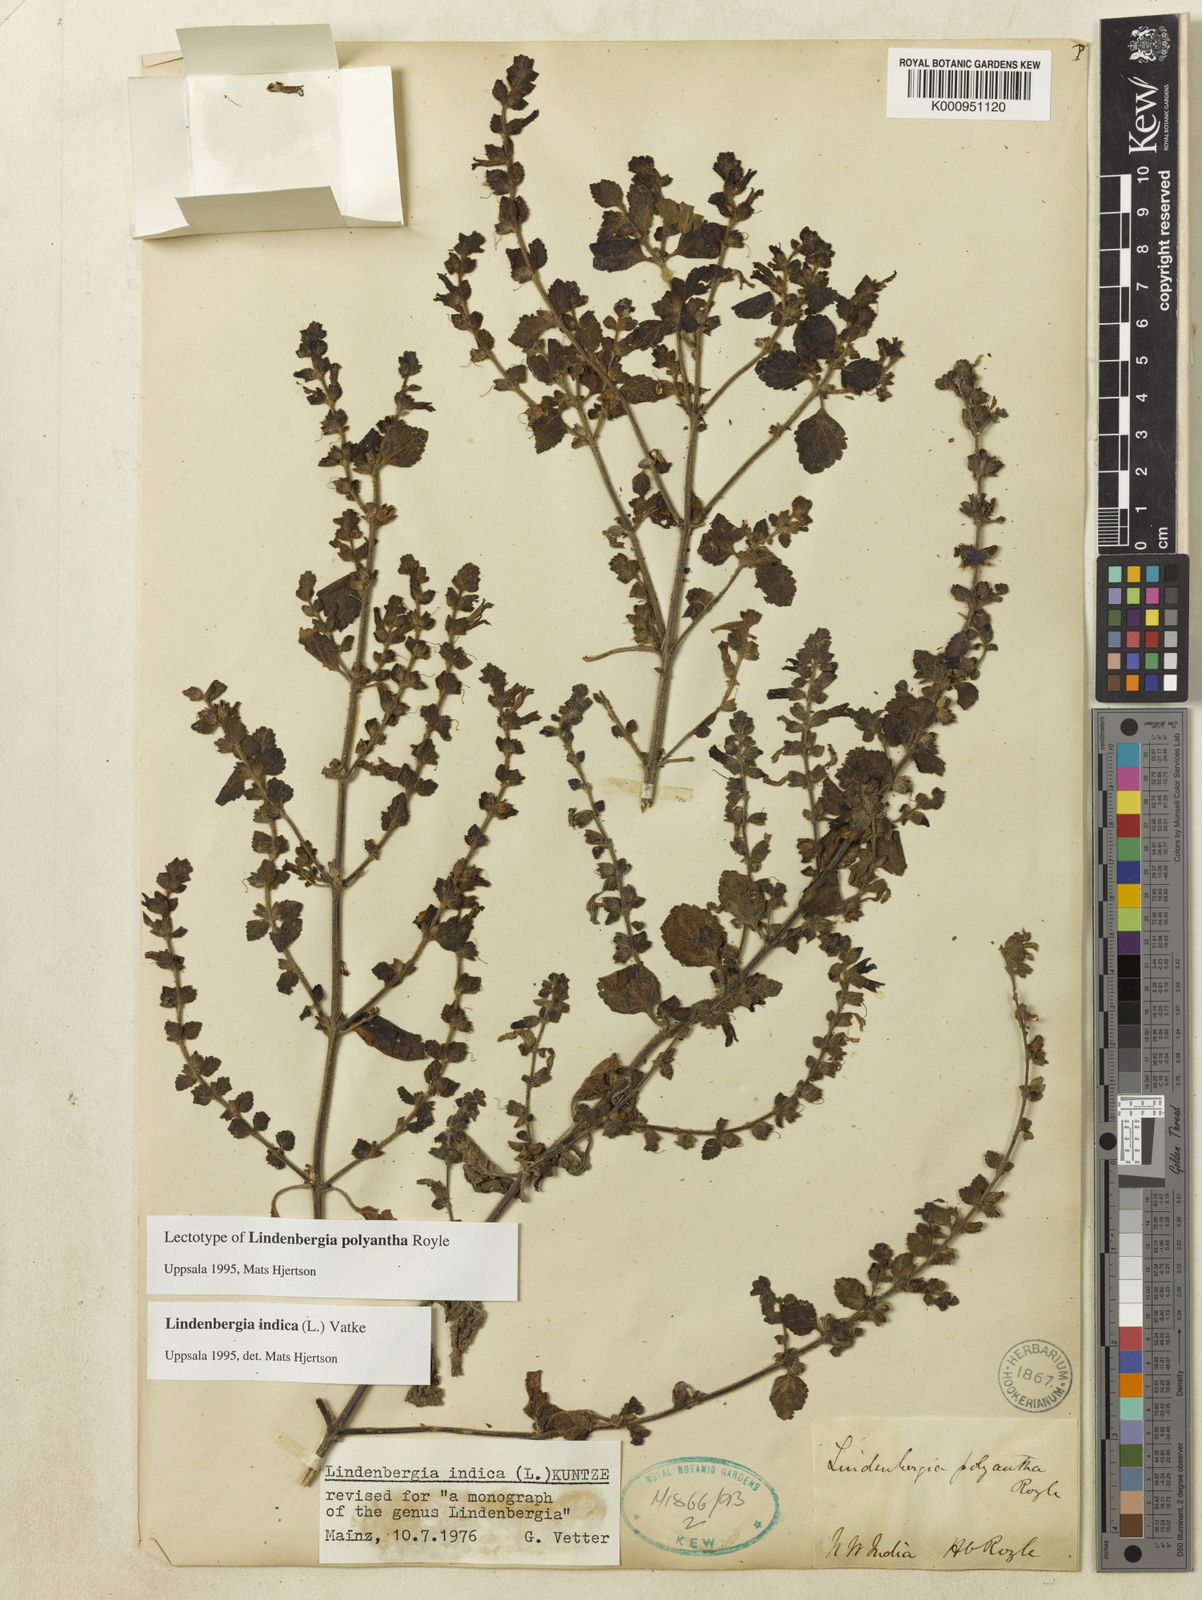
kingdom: Plantae
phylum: Tracheophyta
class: Magnoliopsida
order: Lamiales
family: Orobanchaceae
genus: Lindenbergia
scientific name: Lindenbergia indica
